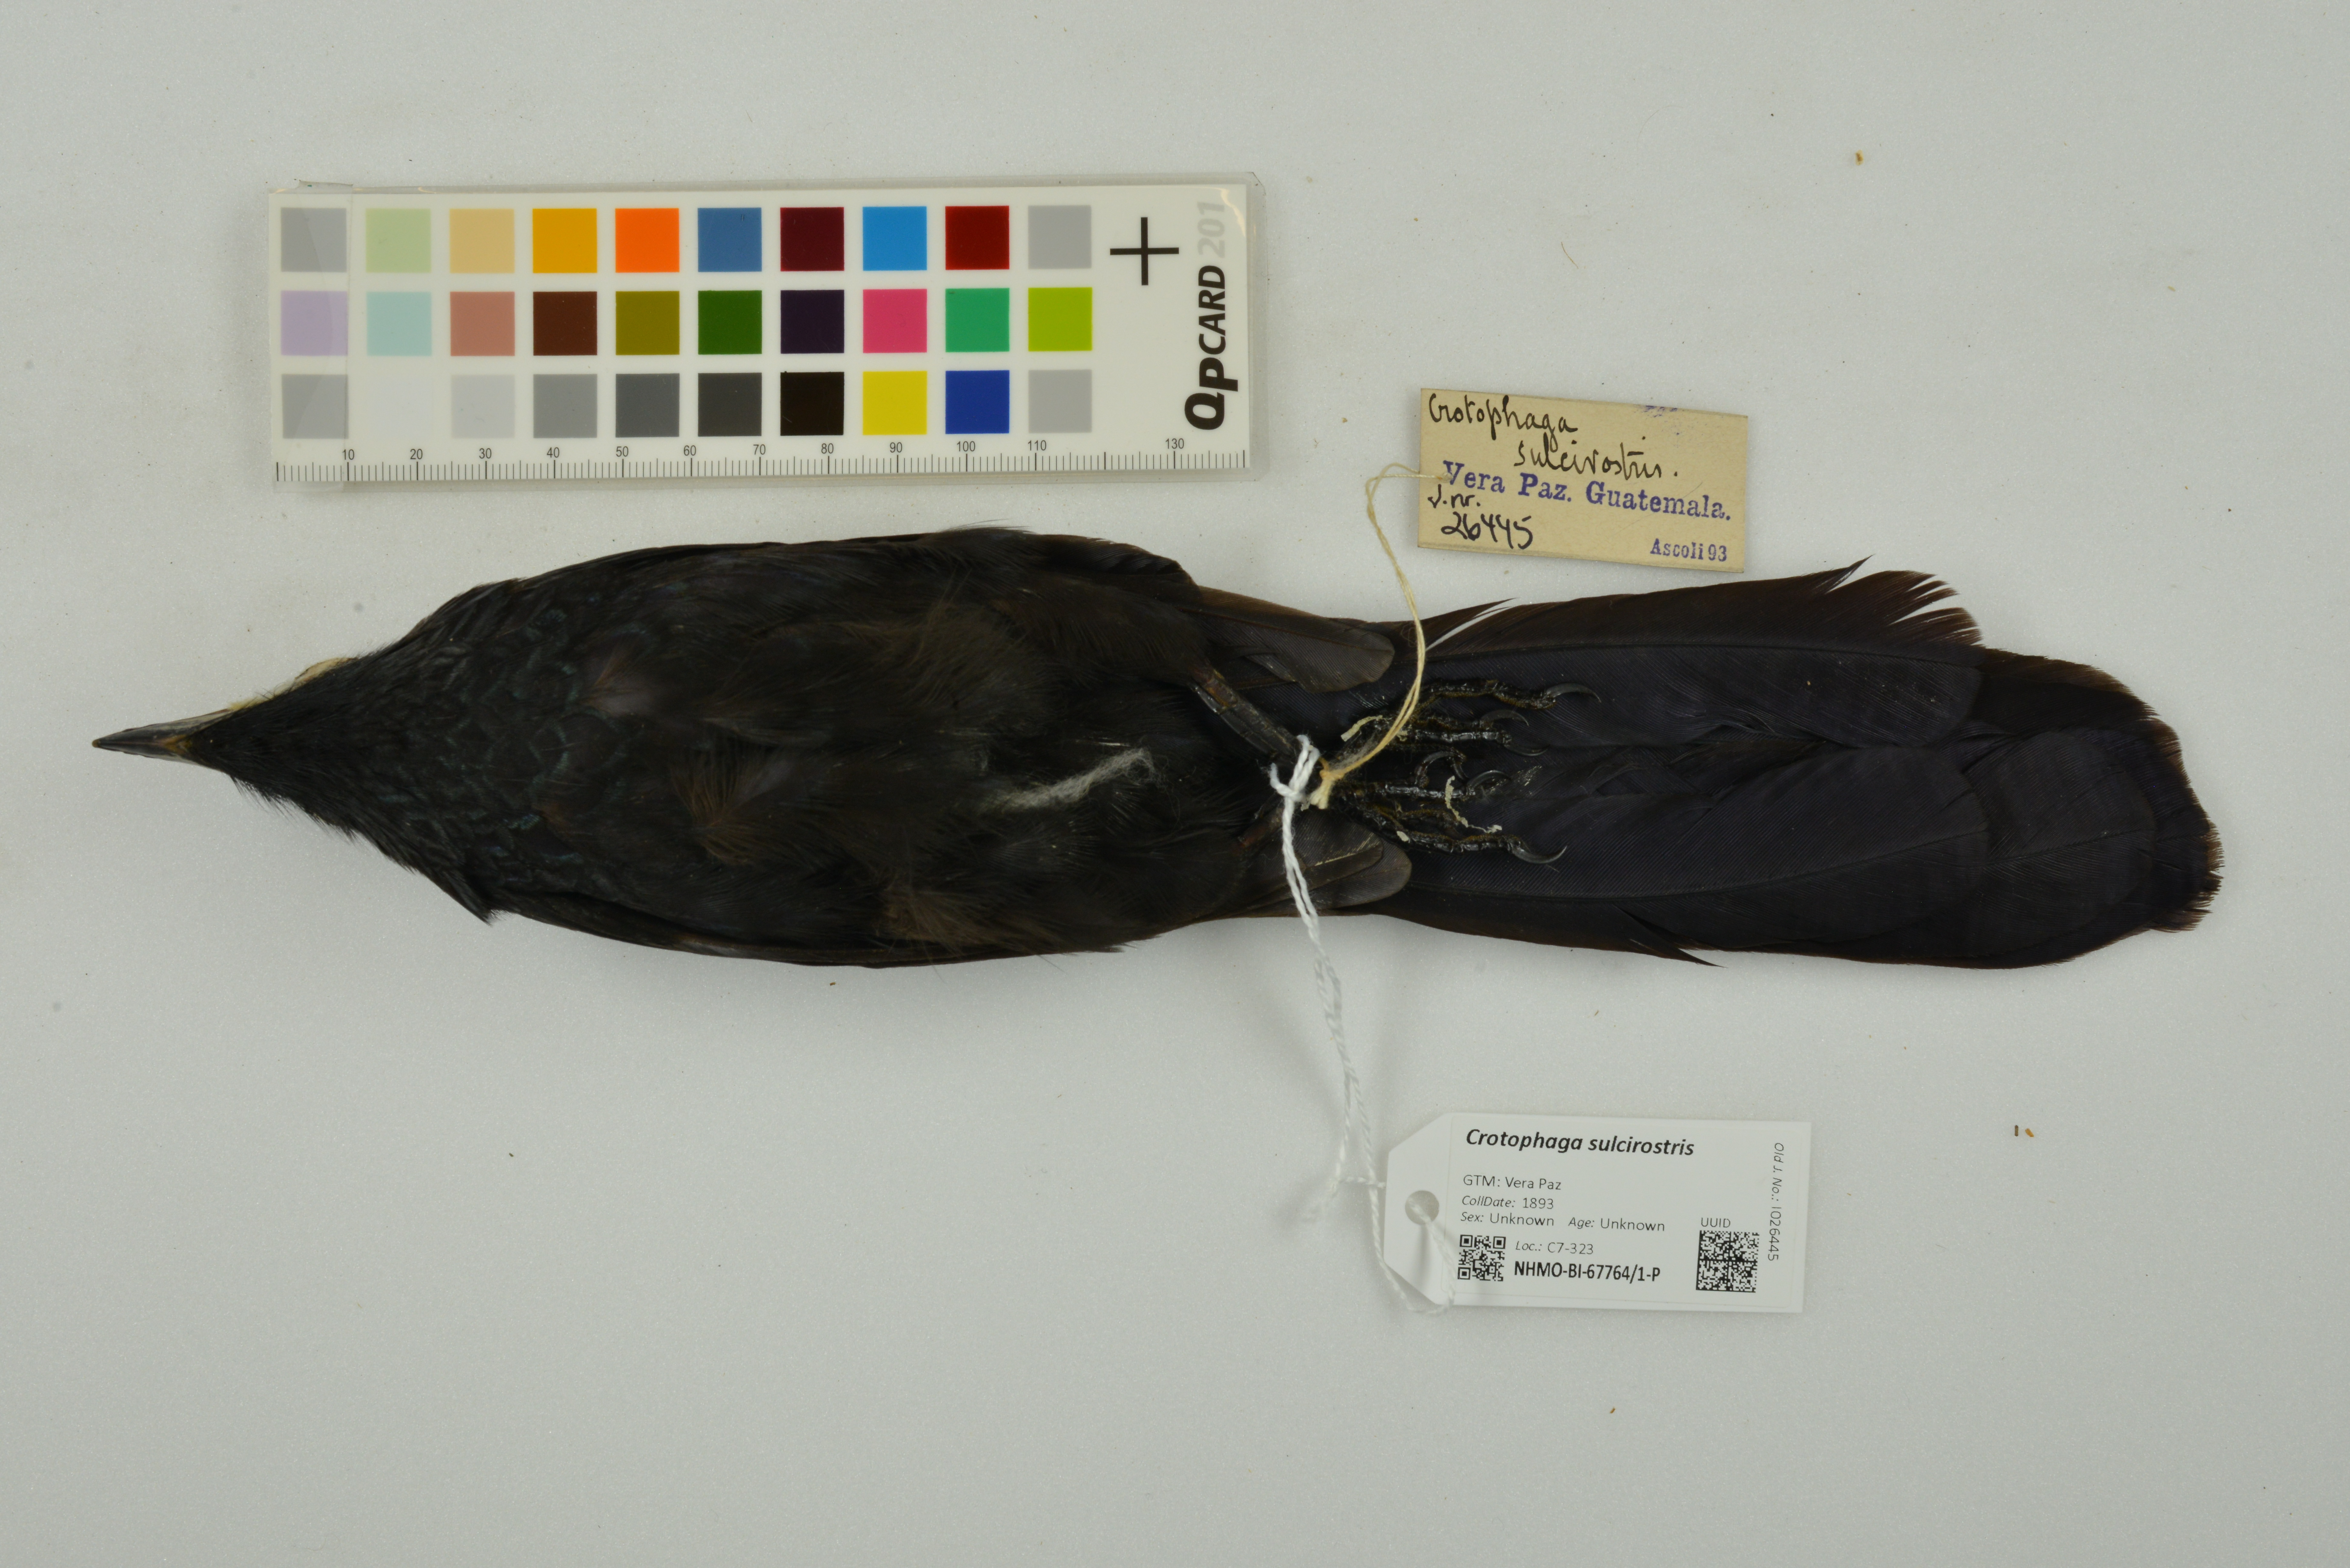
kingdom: Animalia
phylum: Chordata
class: Aves
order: Cuculiformes
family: Cuculidae
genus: Crotophaga
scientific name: Crotophaga sulcirostris
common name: Groove-billed ani
